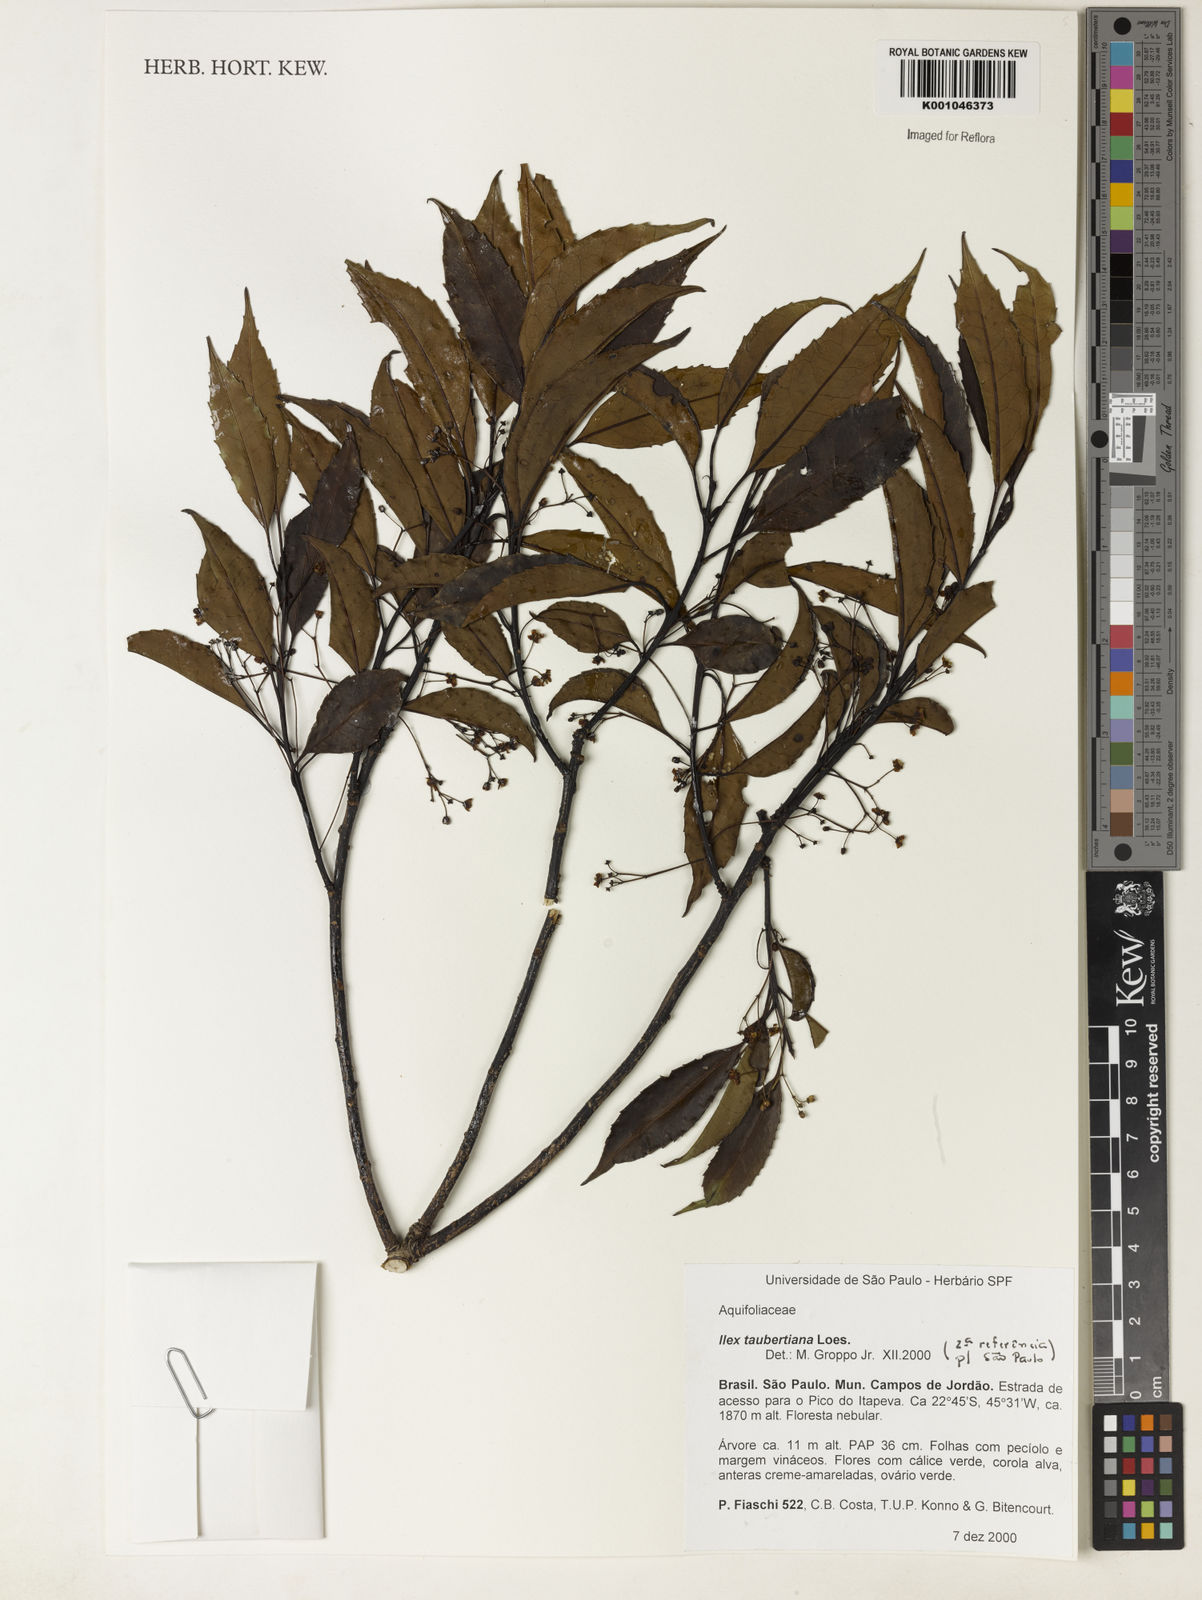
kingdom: Plantae
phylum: Tracheophyta
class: Magnoliopsida
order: Aquifoliales
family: Aquifoliaceae
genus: Ilex
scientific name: Ilex taubertiana
